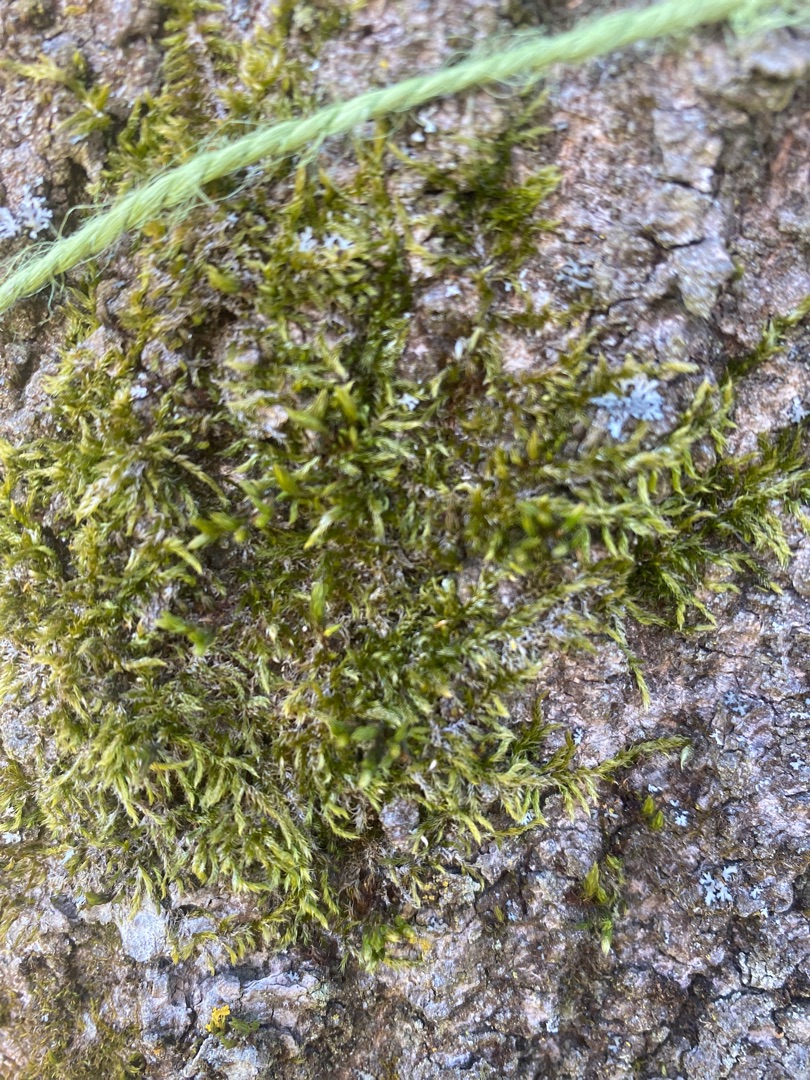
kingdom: Plantae
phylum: Bryophyta
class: Bryopsida
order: Hypnales
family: Hypnaceae
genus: Hypnum
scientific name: Hypnum cupressiforme
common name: Almindelig cypresmos
